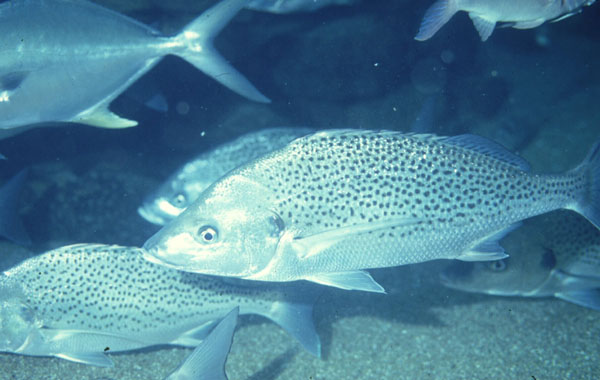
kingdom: Animalia
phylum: Chordata
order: Perciformes
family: Haemulidae
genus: Pomadasys
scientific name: Pomadasys commersonnii
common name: Smallspotted grunter
